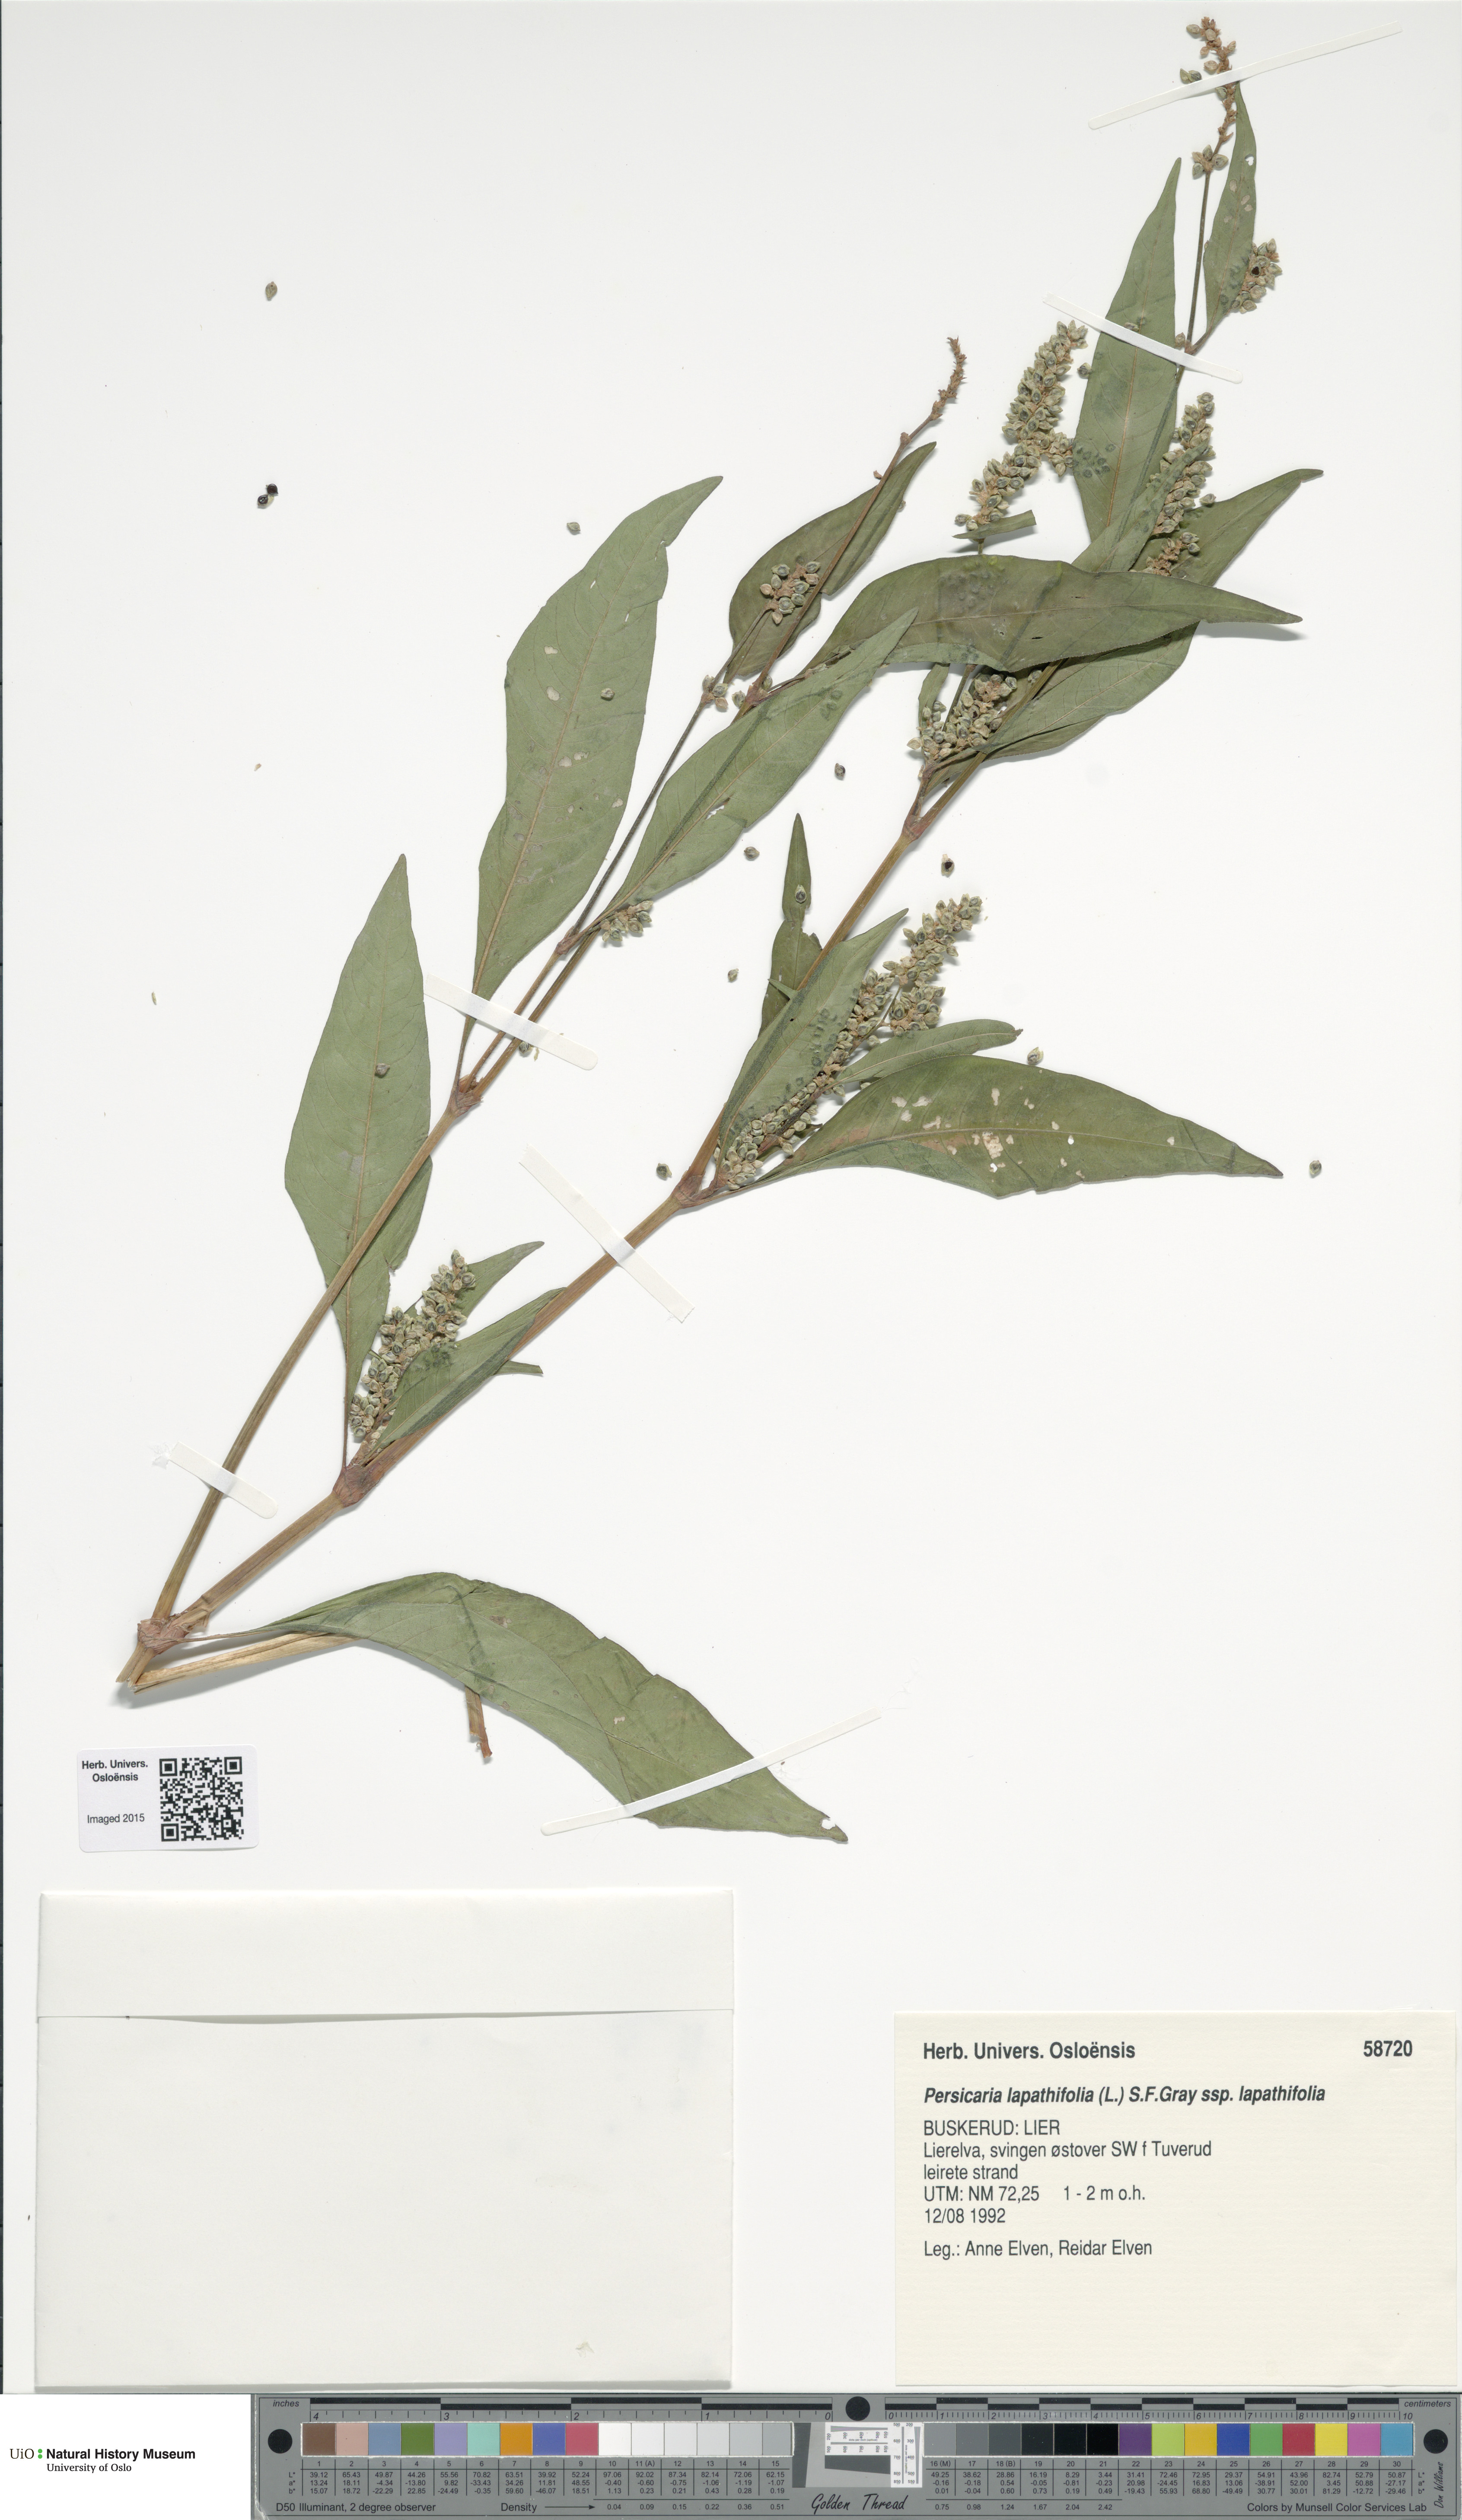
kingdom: Plantae
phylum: Tracheophyta
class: Magnoliopsida
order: Caryophyllales
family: Polygonaceae
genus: Persicaria
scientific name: Persicaria lapathifolia
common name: Curlytop knotweed
